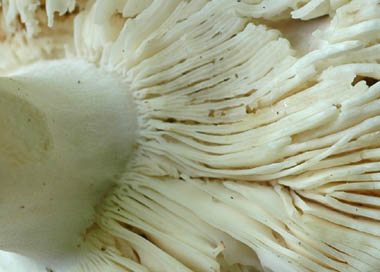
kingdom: Fungi
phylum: Basidiomycota
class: Agaricomycetes
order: Russulales
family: Russulaceae
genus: Russula
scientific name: Russula heterophylla
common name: gaffelbladet skørhat
